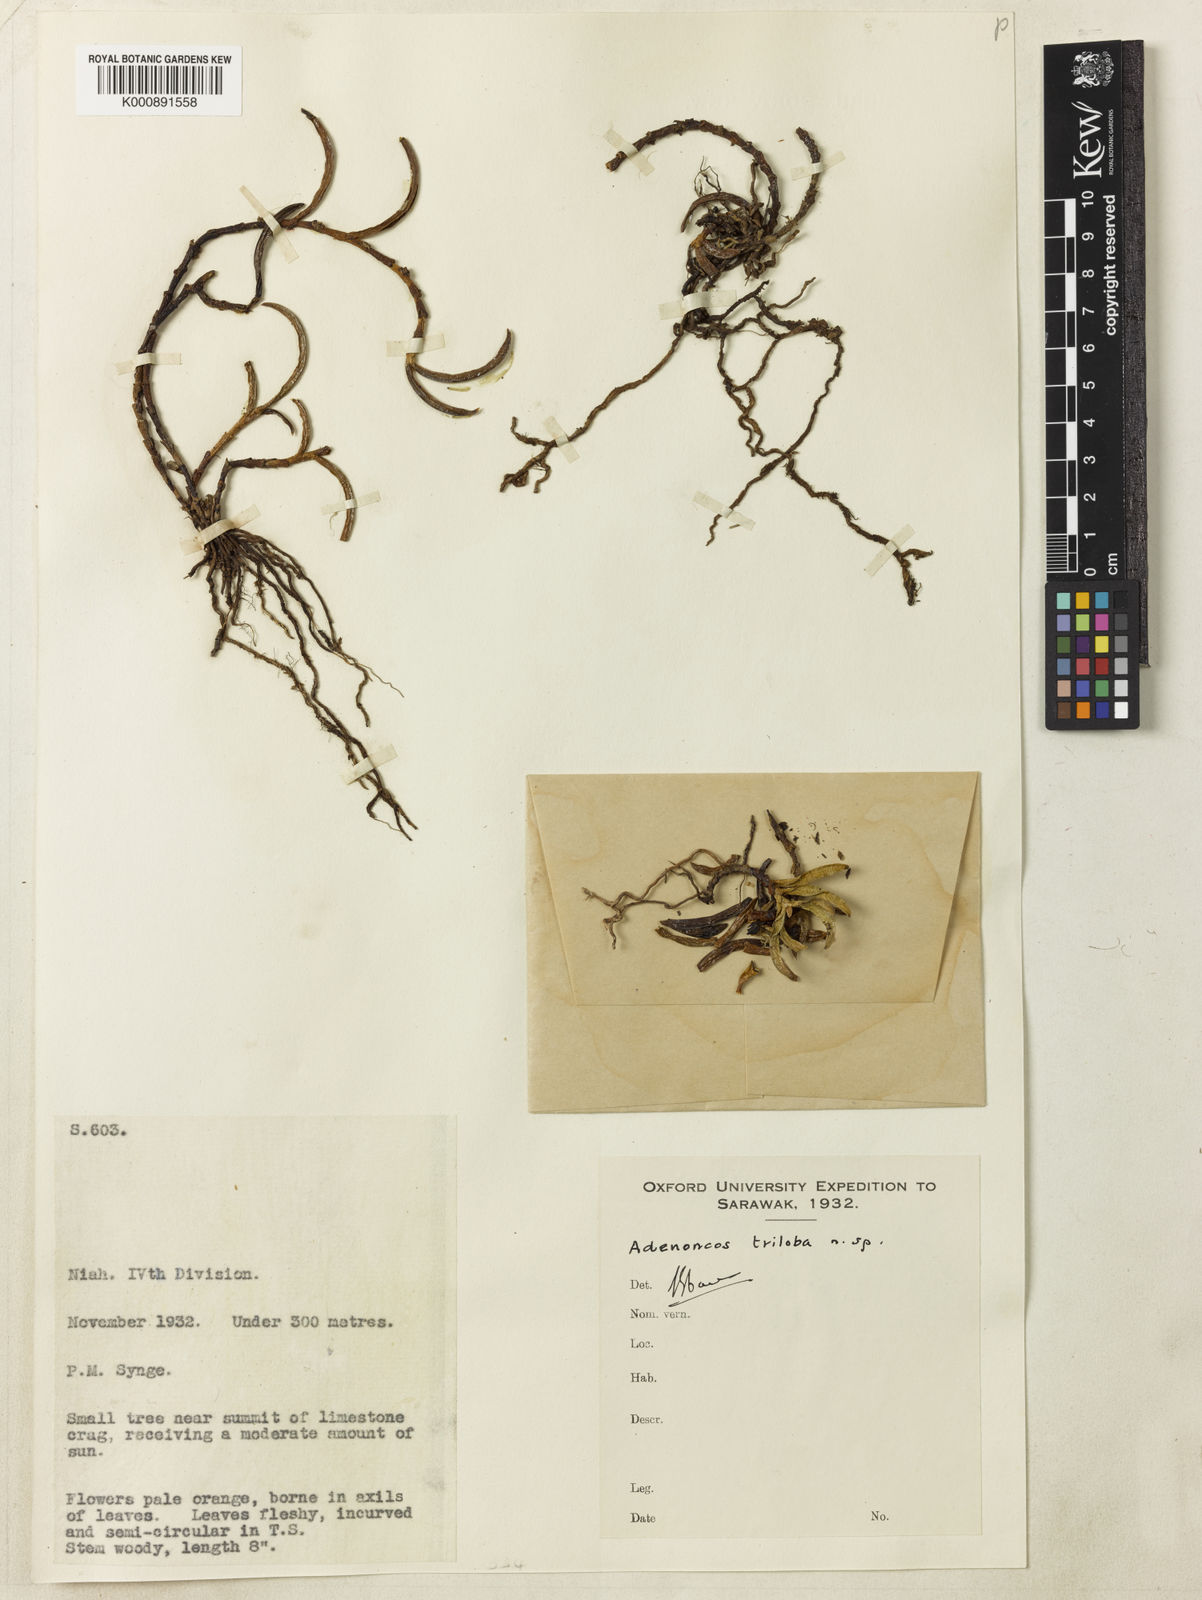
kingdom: Plantae
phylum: Tracheophyta
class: Liliopsida
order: Asparagales
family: Orchidaceae
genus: Adenoncos
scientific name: Adenoncos triloba
